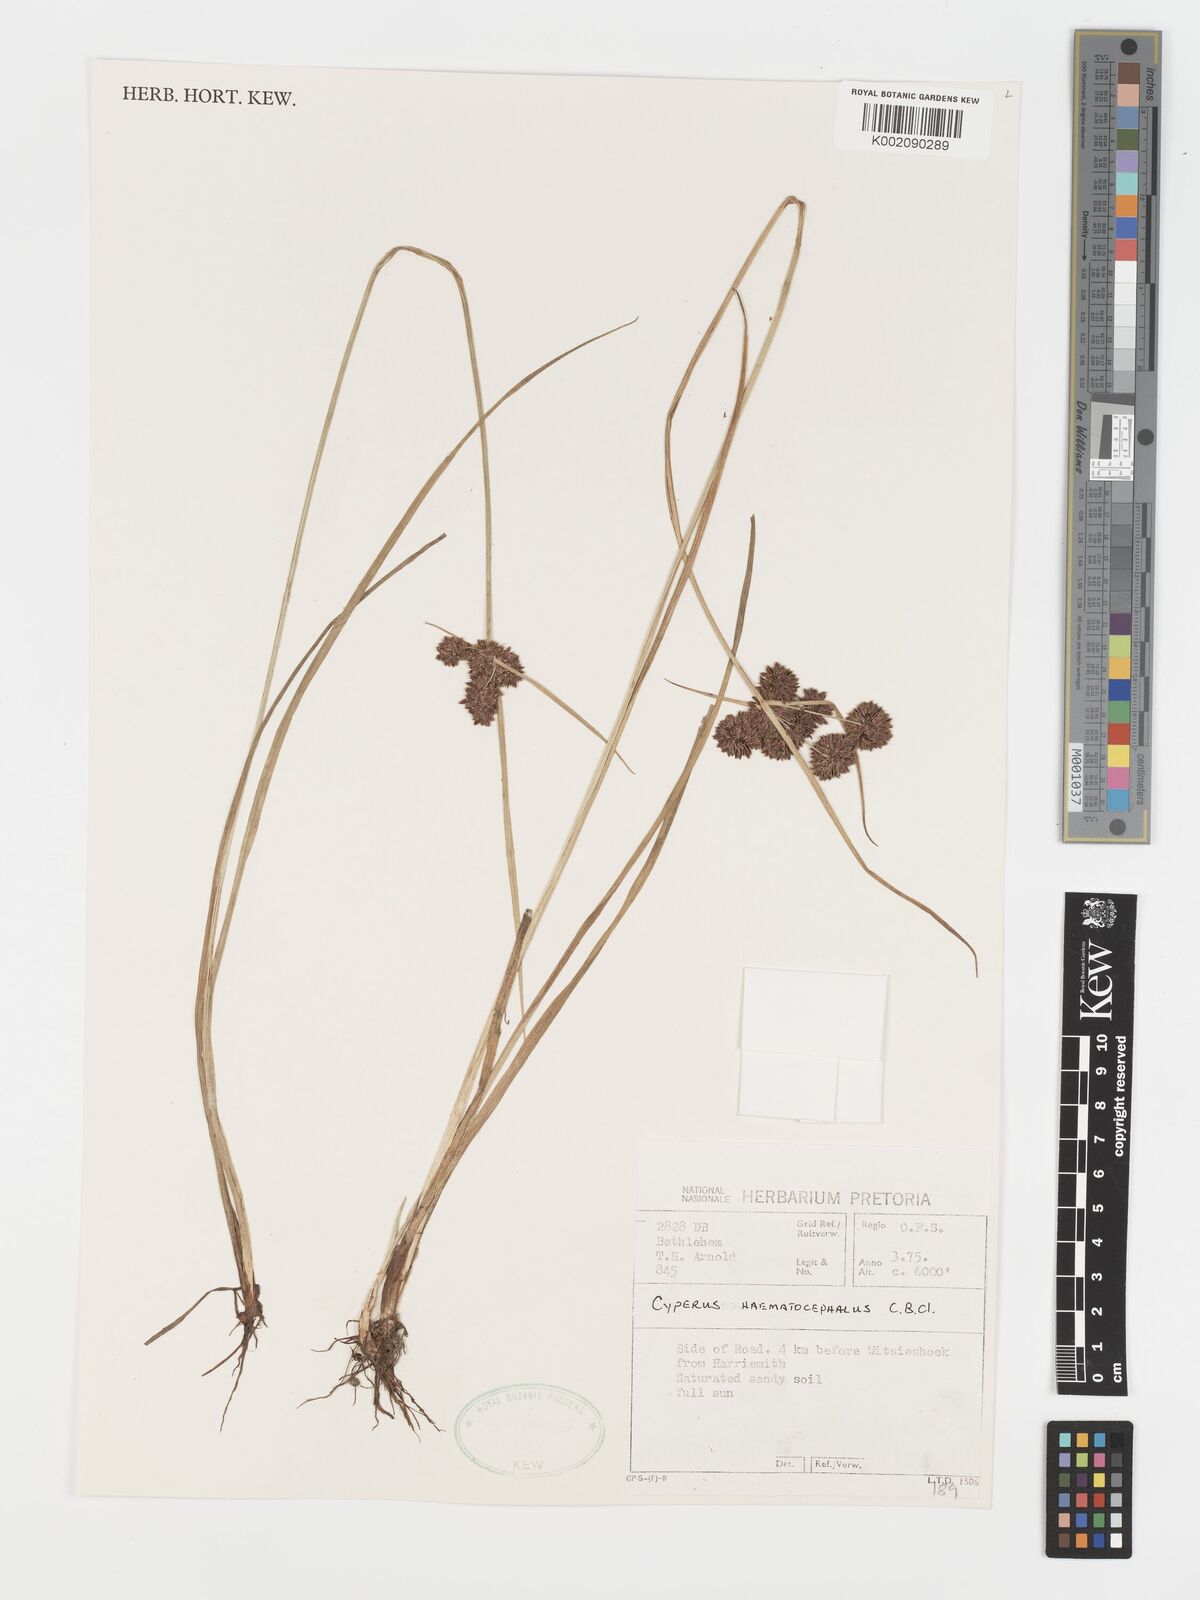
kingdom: Plantae
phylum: Tracheophyta
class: Liliopsida
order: Poales
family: Cyperaceae
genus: Cyperus
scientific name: Cyperus haematocephalus
